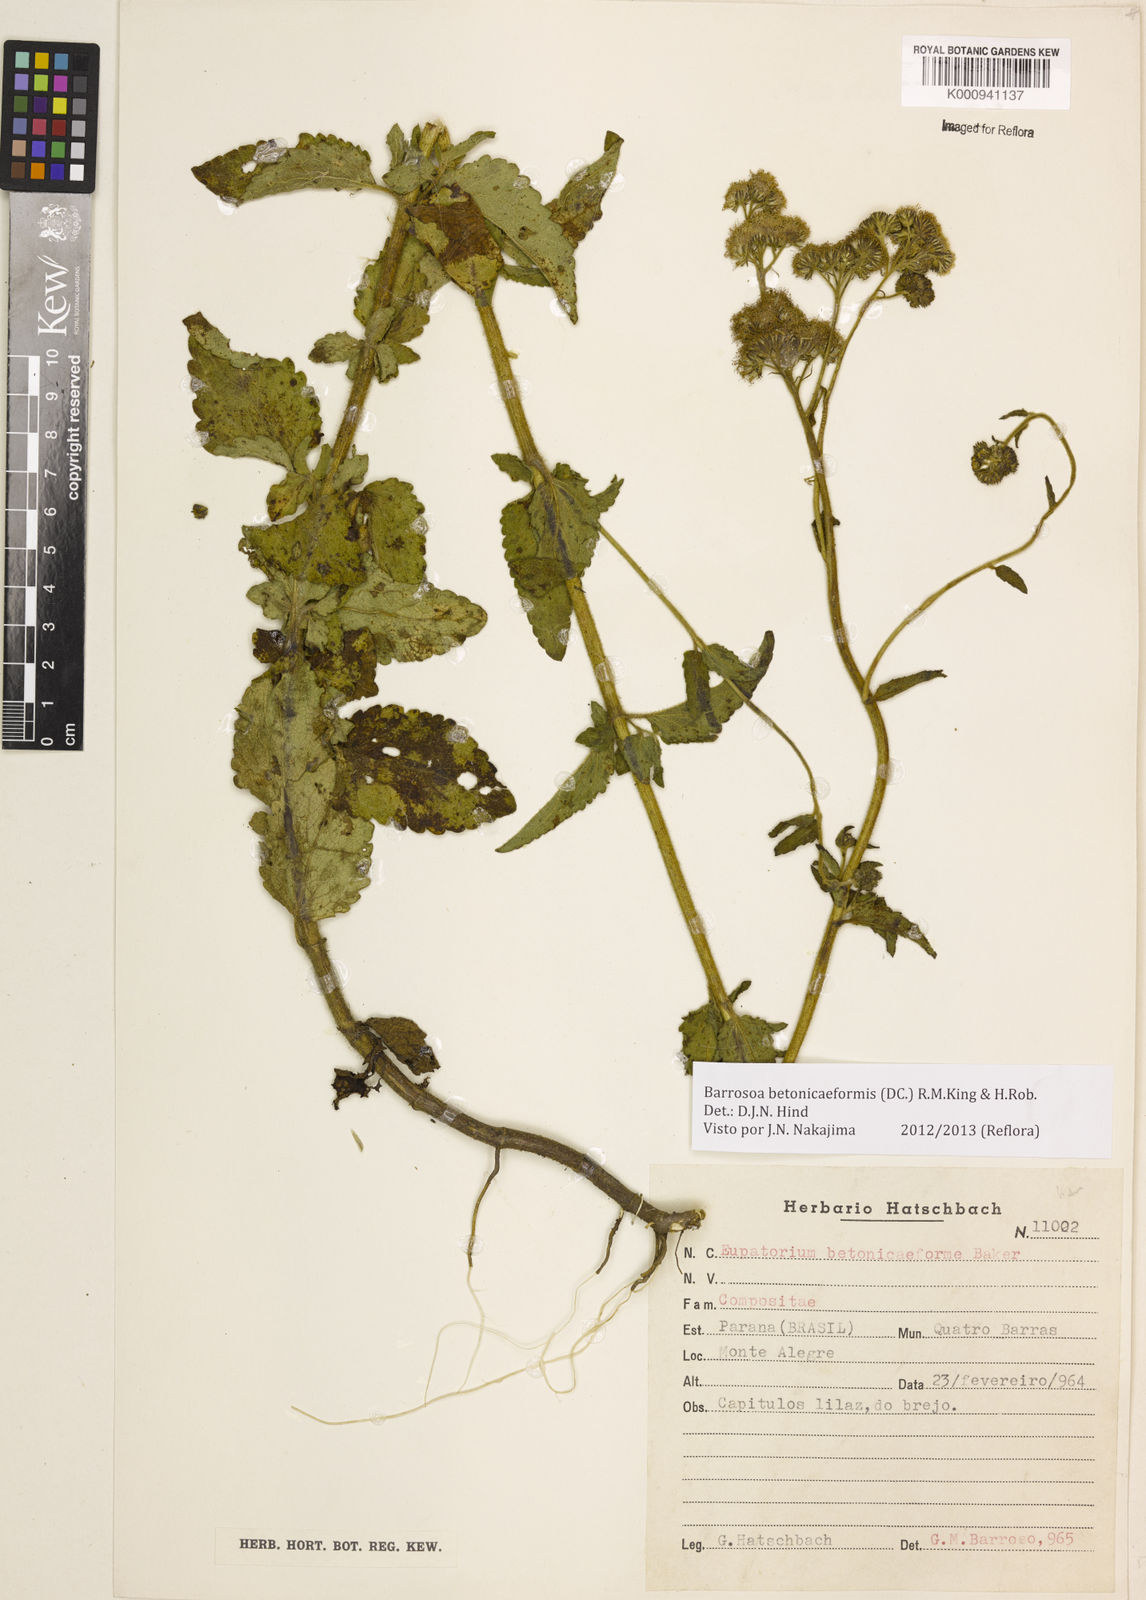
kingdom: Plantae
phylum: Tracheophyta
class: Magnoliopsida
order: Asterales
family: Asteraceae
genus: Barrosoa
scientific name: Barrosoa betoniciformis
